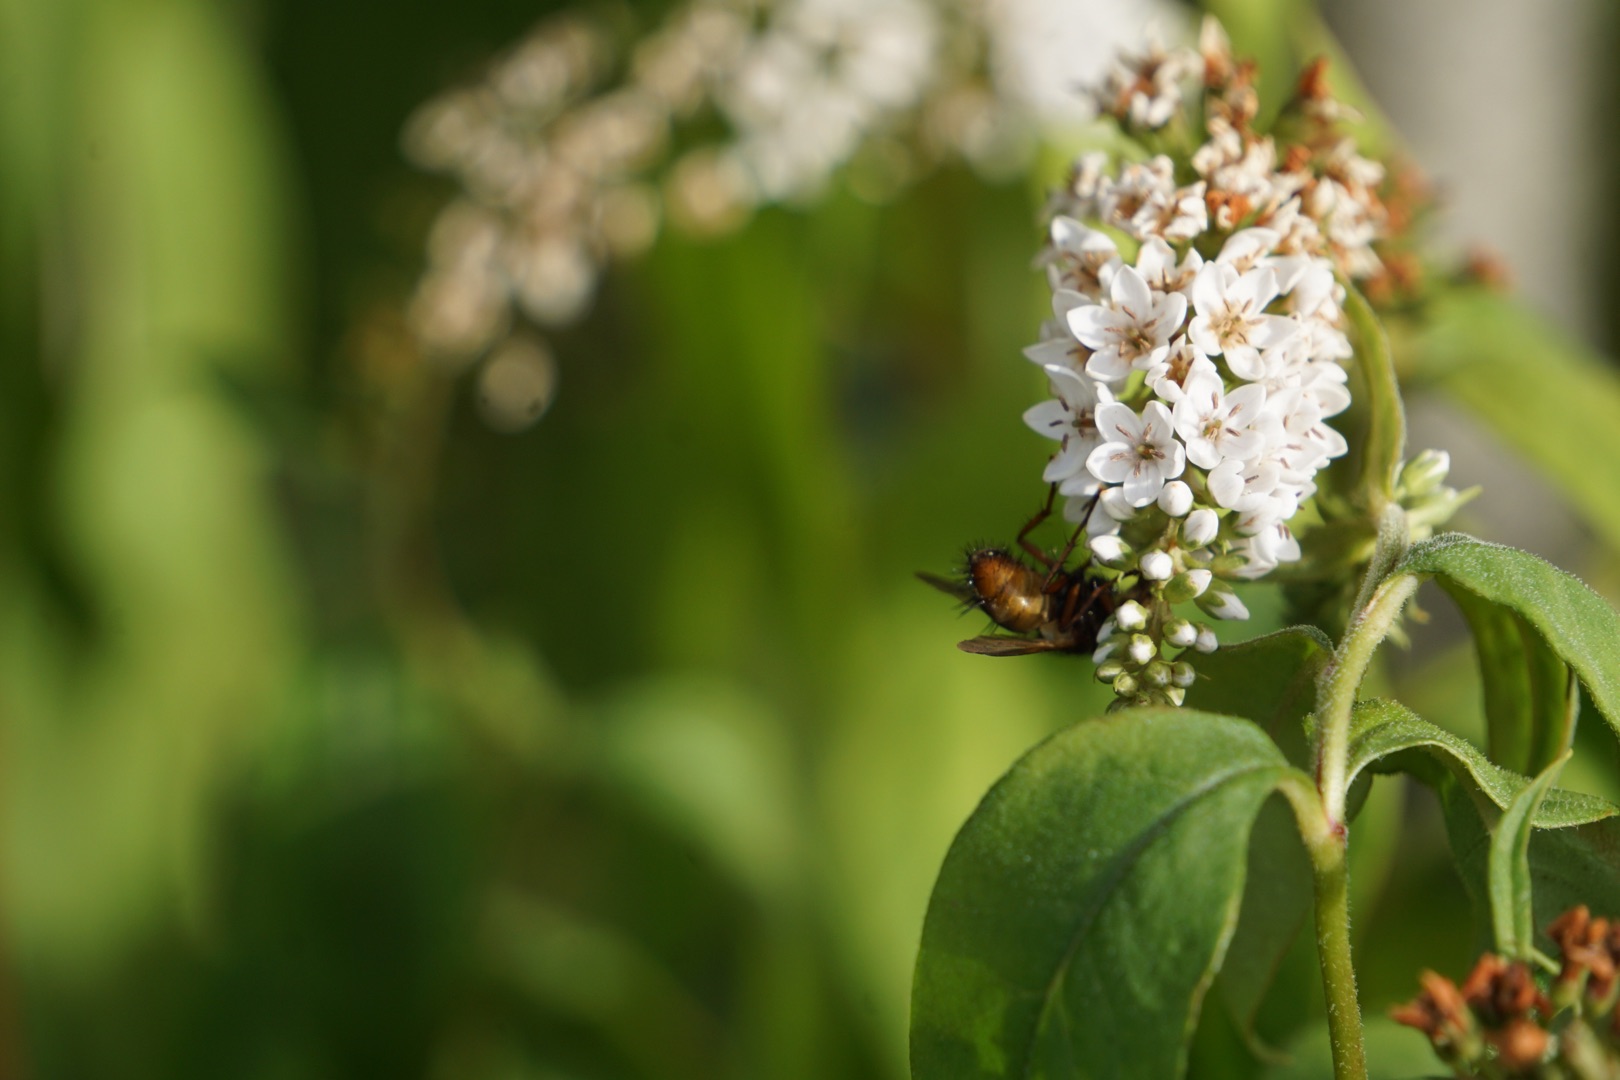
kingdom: Animalia
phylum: Arthropoda
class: Insecta
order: Diptera
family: Tachinidae
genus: Tachina
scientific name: Tachina fera
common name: Mellemfluen oskar
